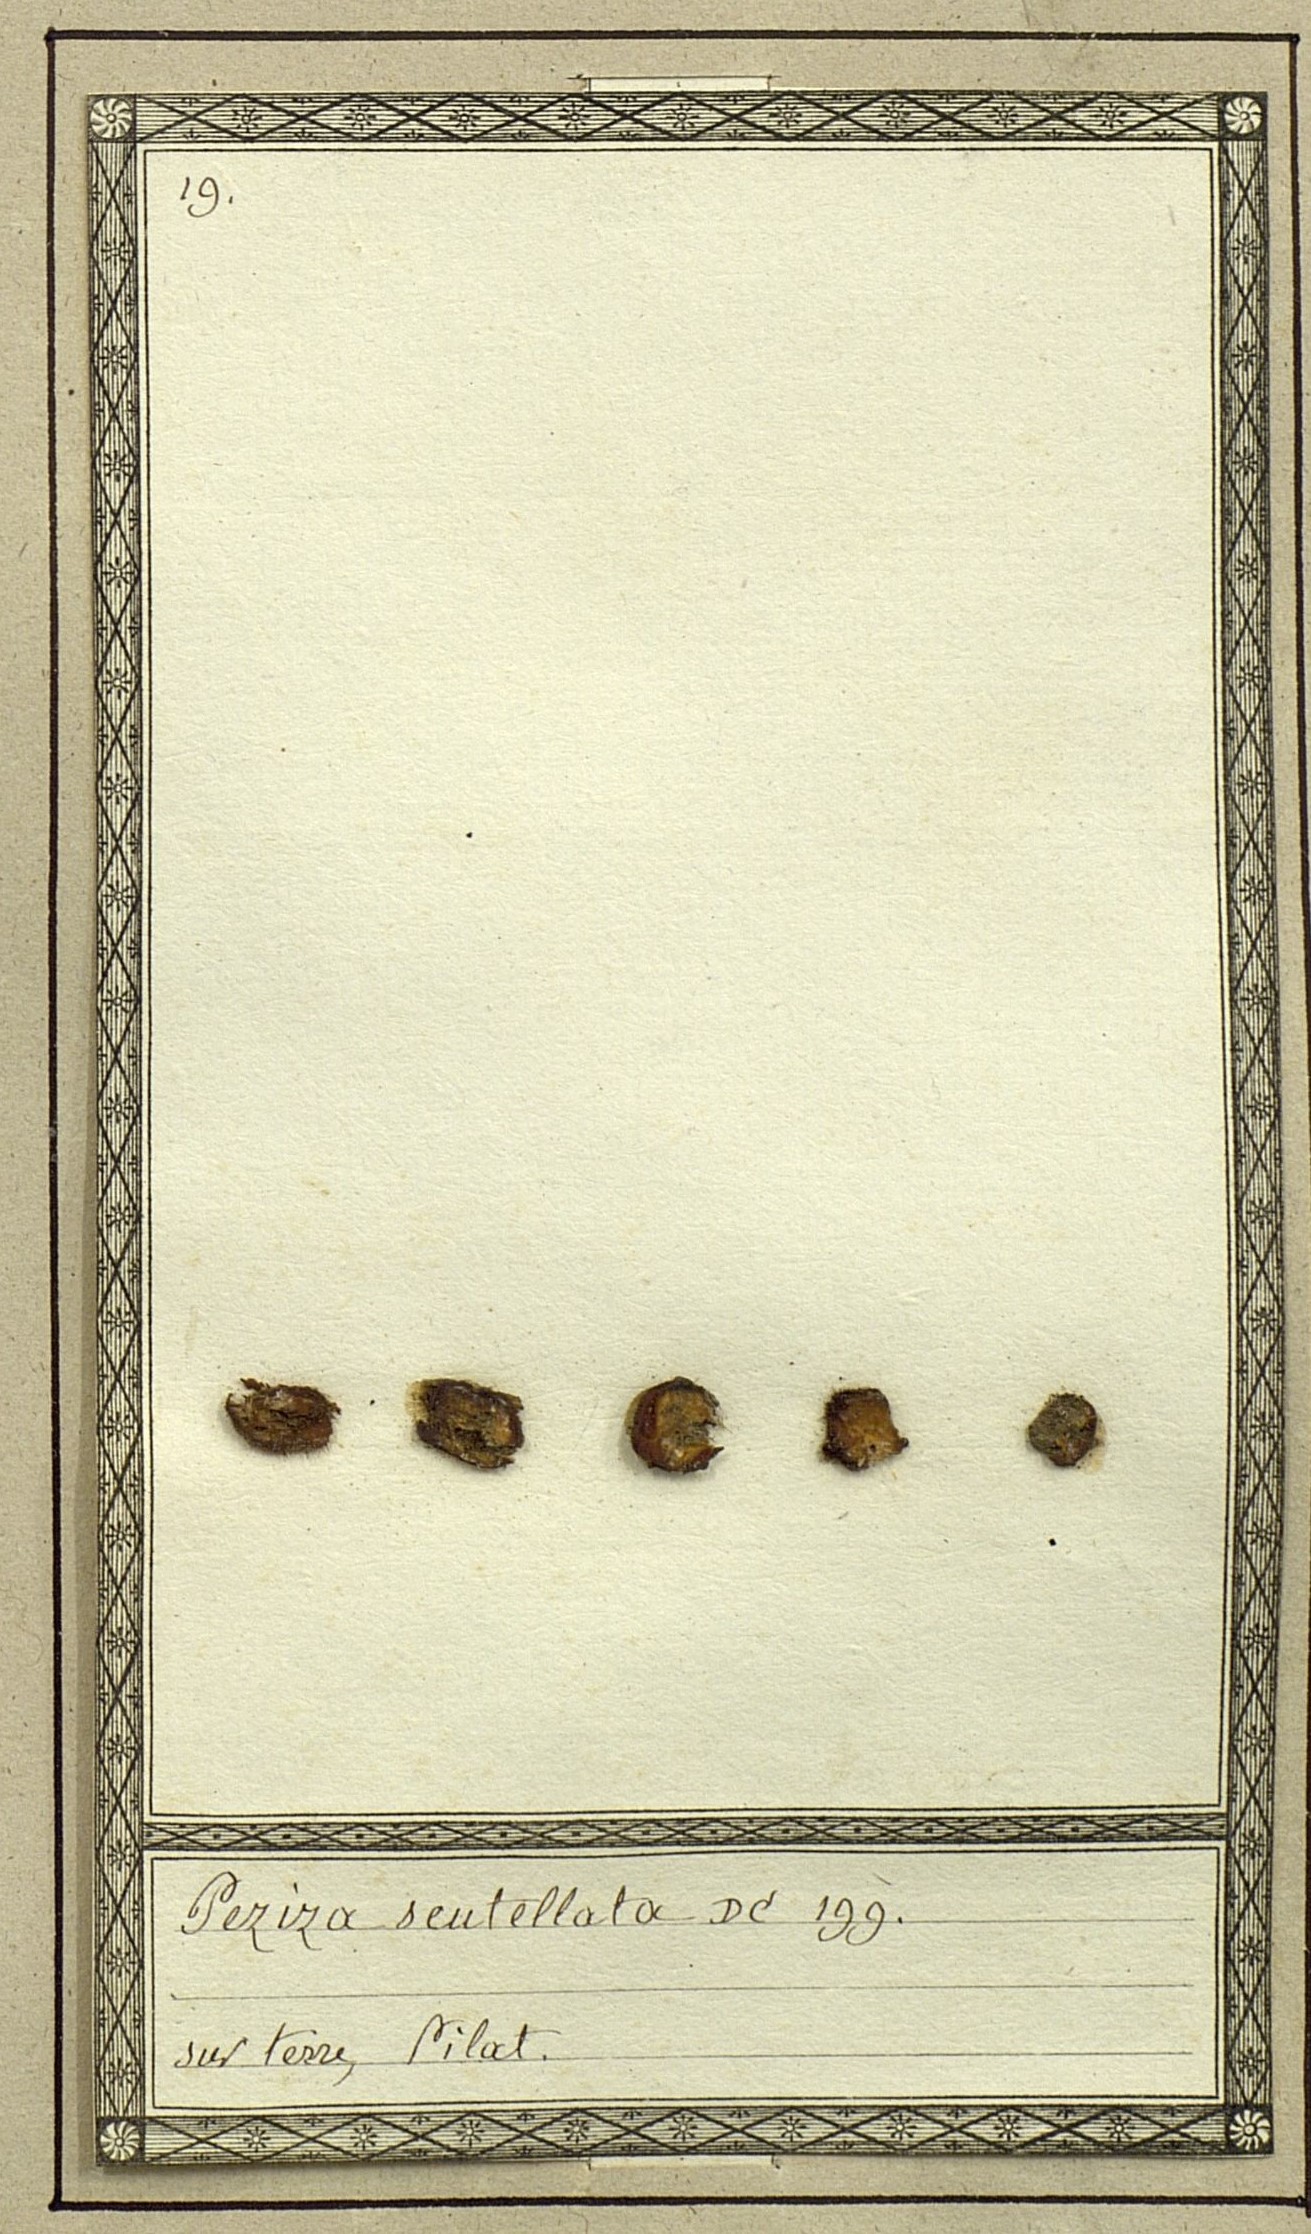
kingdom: Fungi
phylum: Ascomycota
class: Pezizomycetes
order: Pezizales
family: Pyronemataceae
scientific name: Pyronemataceae
